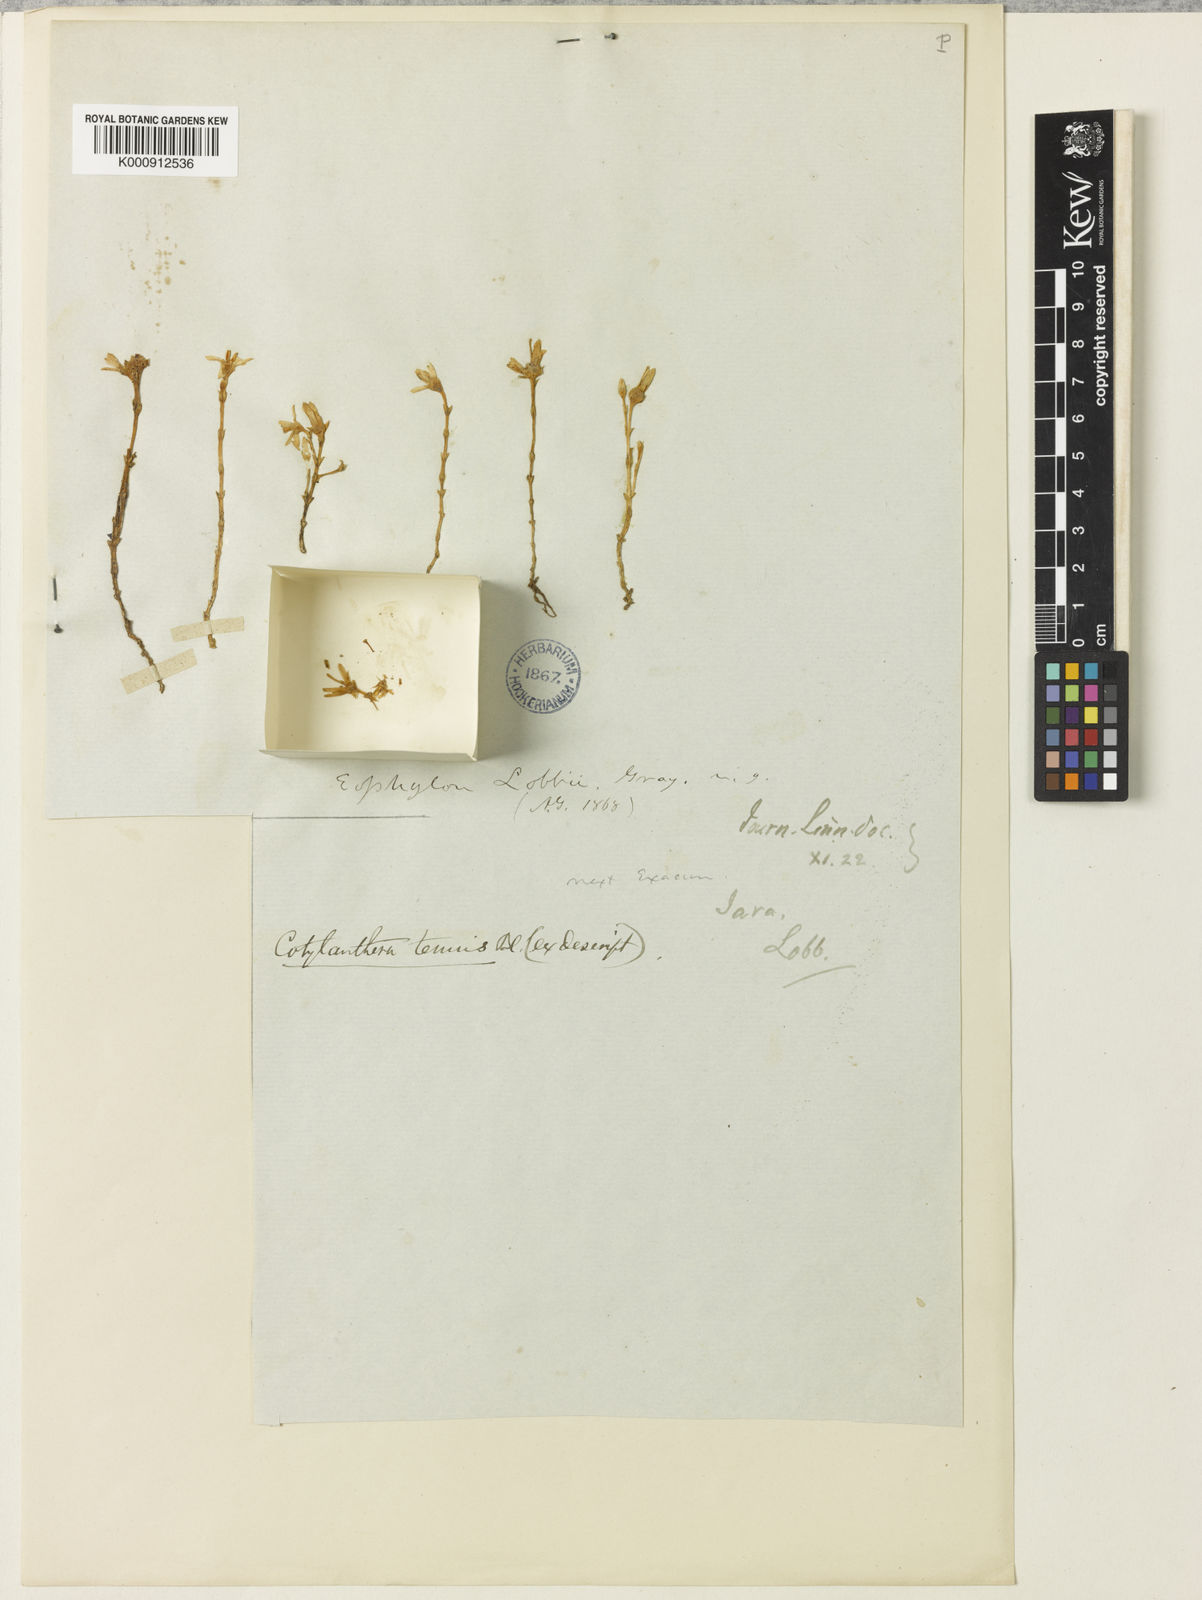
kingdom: Plantae
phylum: Tracheophyta
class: Magnoliopsida
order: Gentianales
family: Gentianaceae
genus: Exacum
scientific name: Exacum tenue
